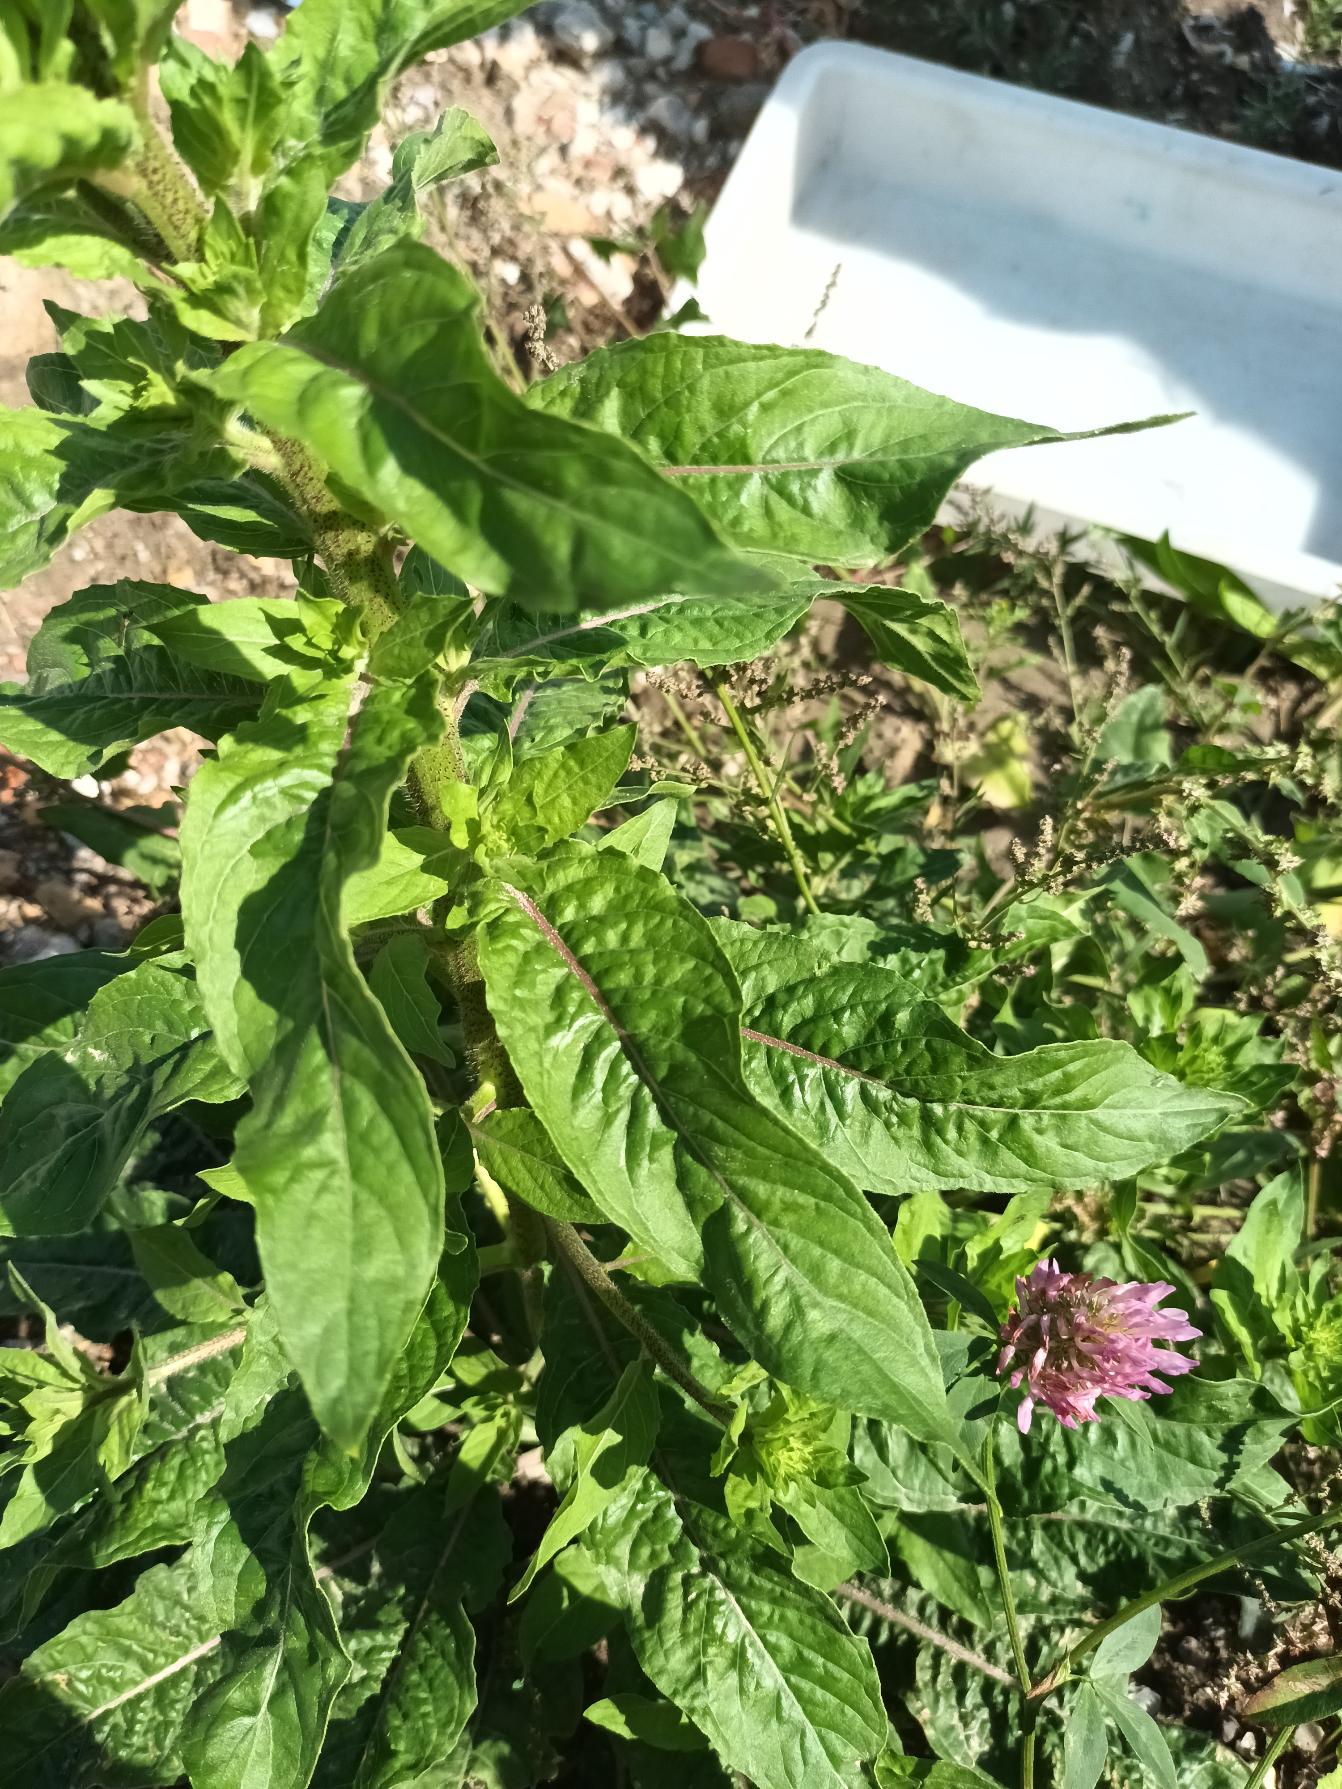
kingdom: Plantae
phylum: Tracheophyta
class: Magnoliopsida
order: Myrtales
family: Onagraceae
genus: Oenothera
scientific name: Oenothera
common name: Natlysslægten
